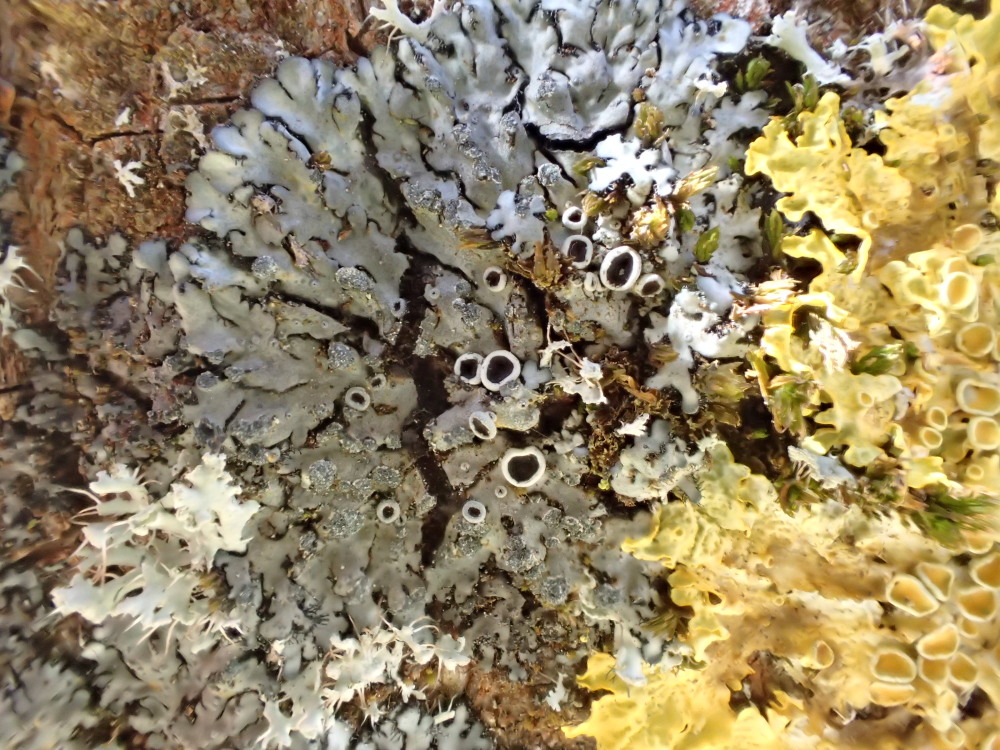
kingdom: Fungi
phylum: Ascomycota
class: Lecanoromycetes
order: Caliciales
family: Physciaceae
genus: Phaeophyscia
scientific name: Phaeophyscia orbicularis
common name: grågrøn rosetlav
